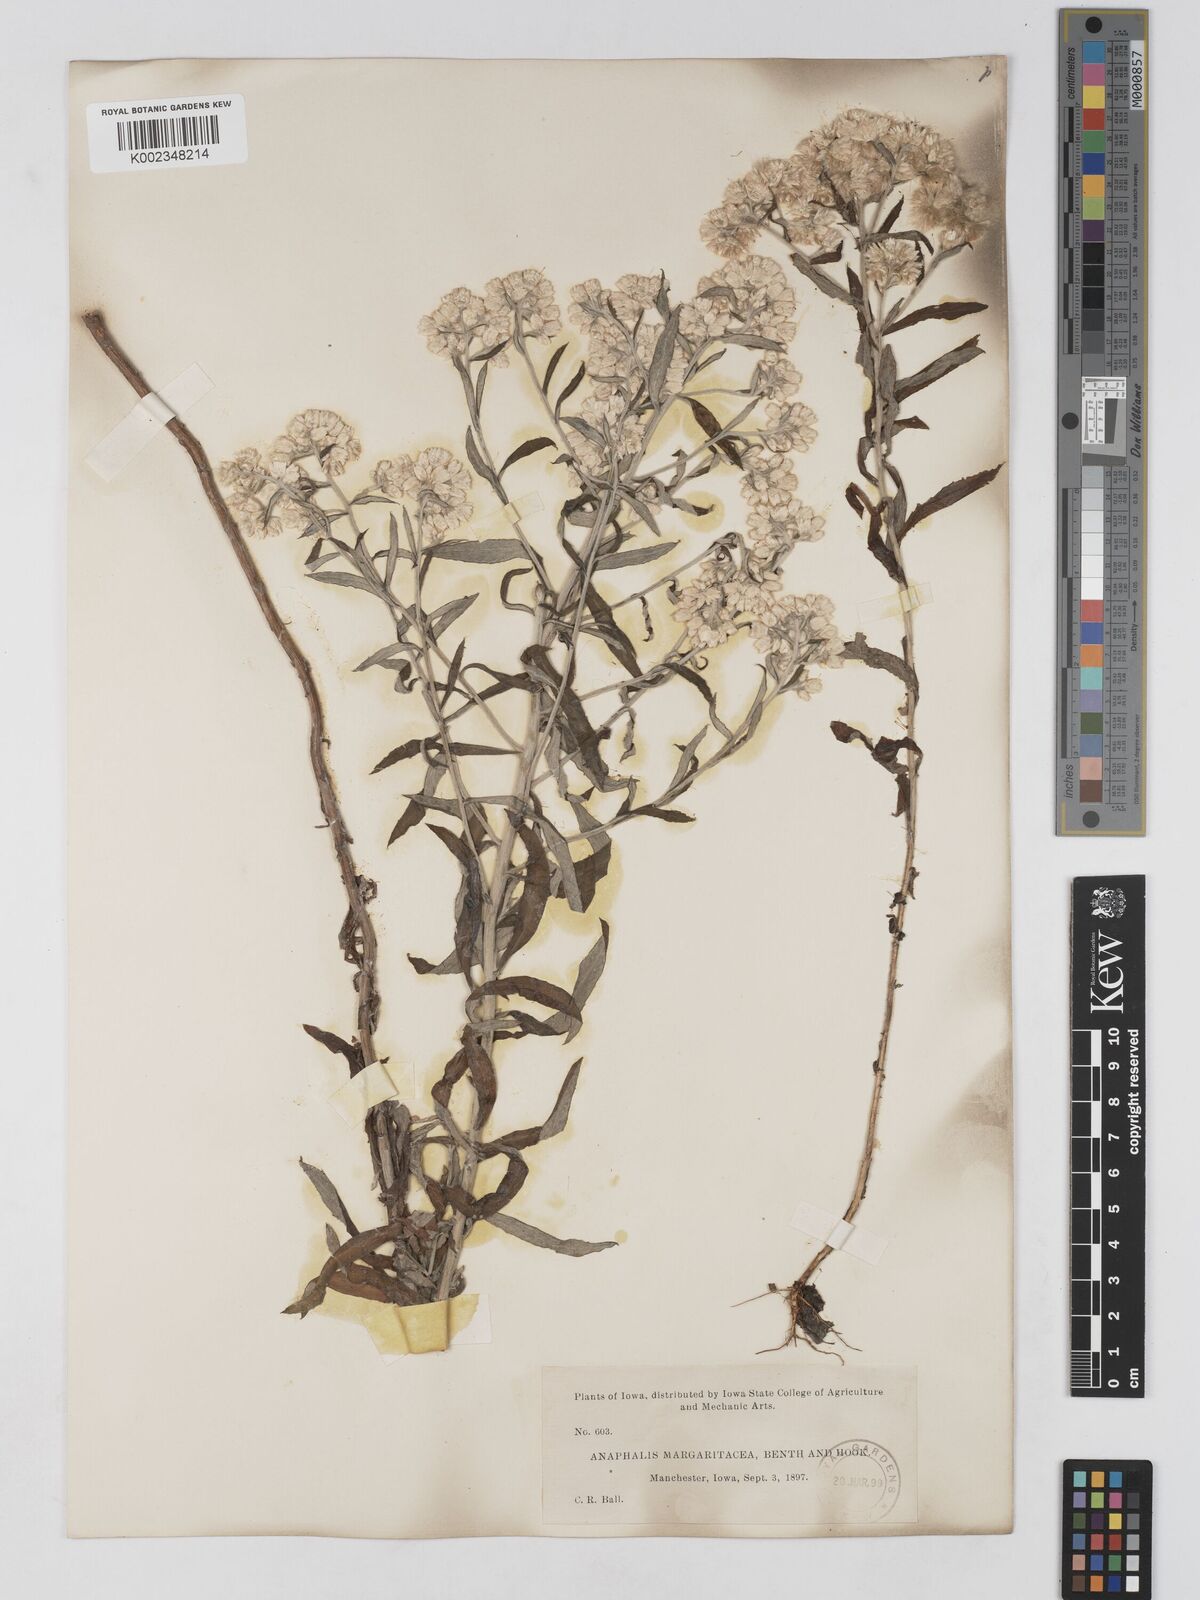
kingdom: Plantae
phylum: Tracheophyta
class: Magnoliopsida
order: Asterales
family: Asteraceae
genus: Anaphalis
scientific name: Anaphalis margaritacea
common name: Pearly everlasting
